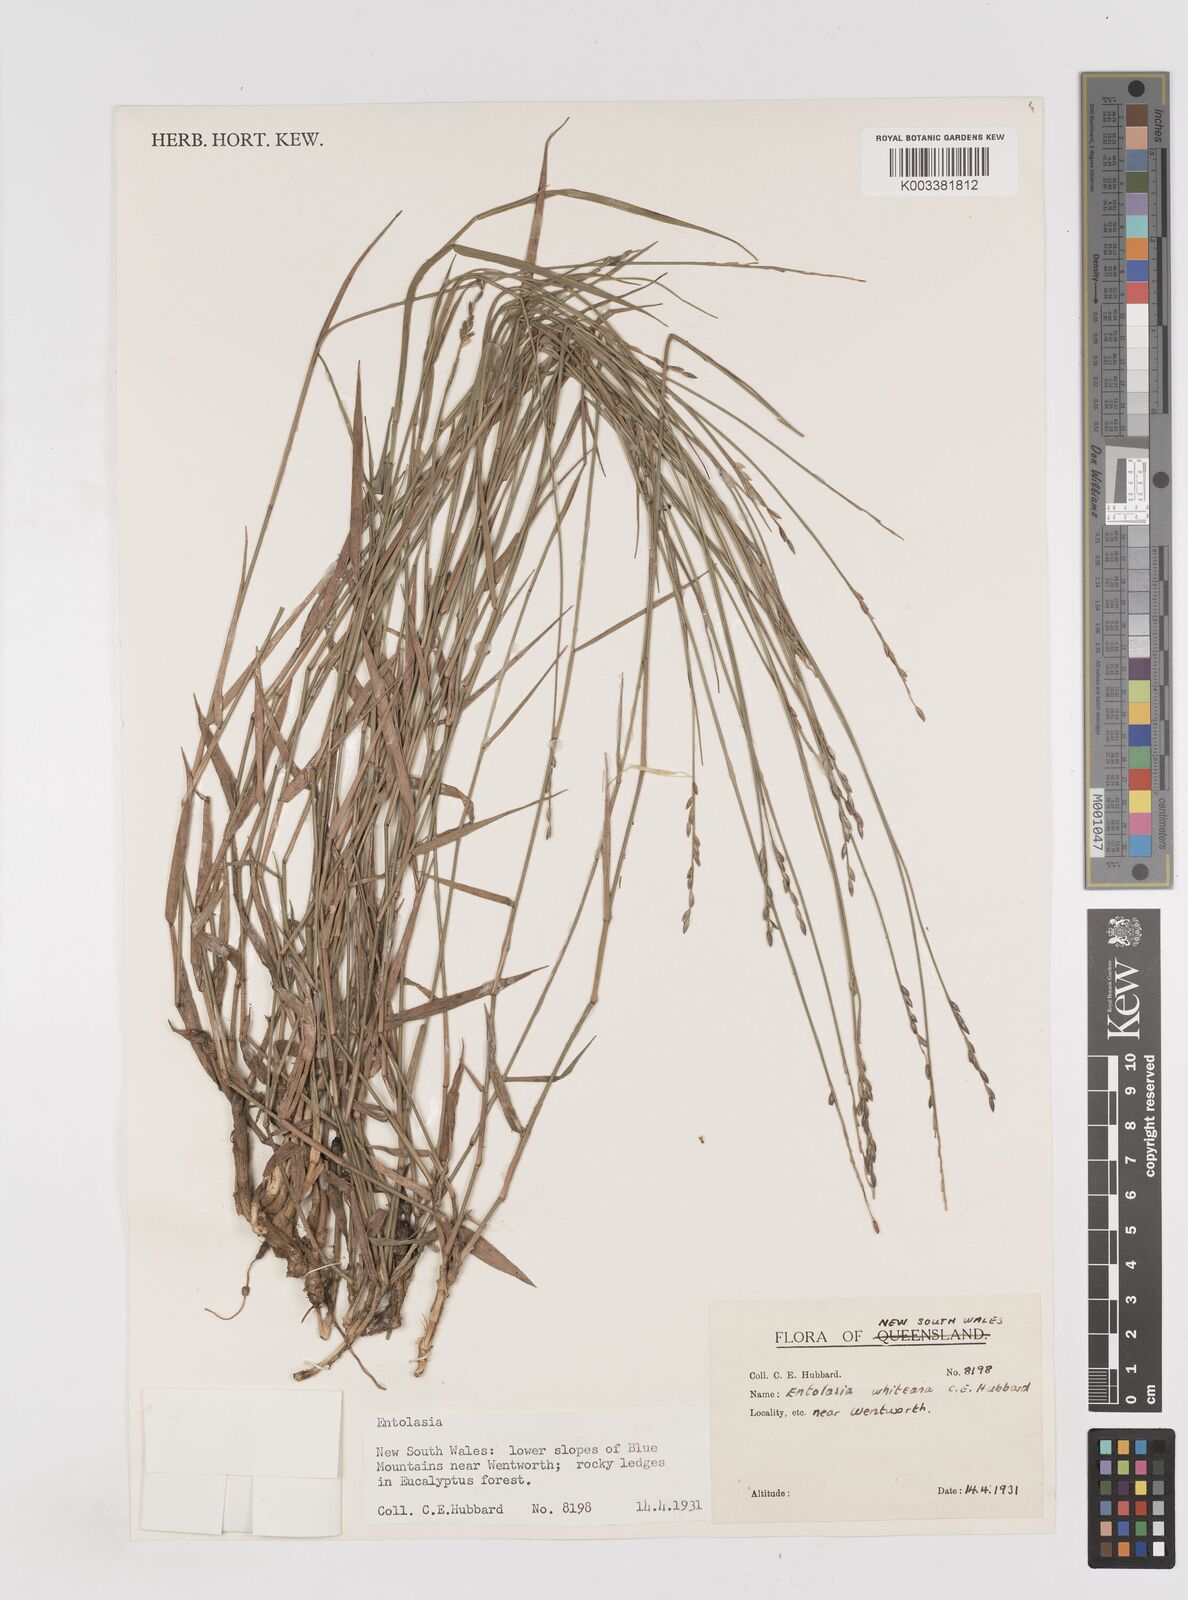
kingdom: Plantae
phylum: Tracheophyta
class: Liliopsida
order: Poales
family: Poaceae
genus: Entolasia
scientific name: Entolasia whiteana
